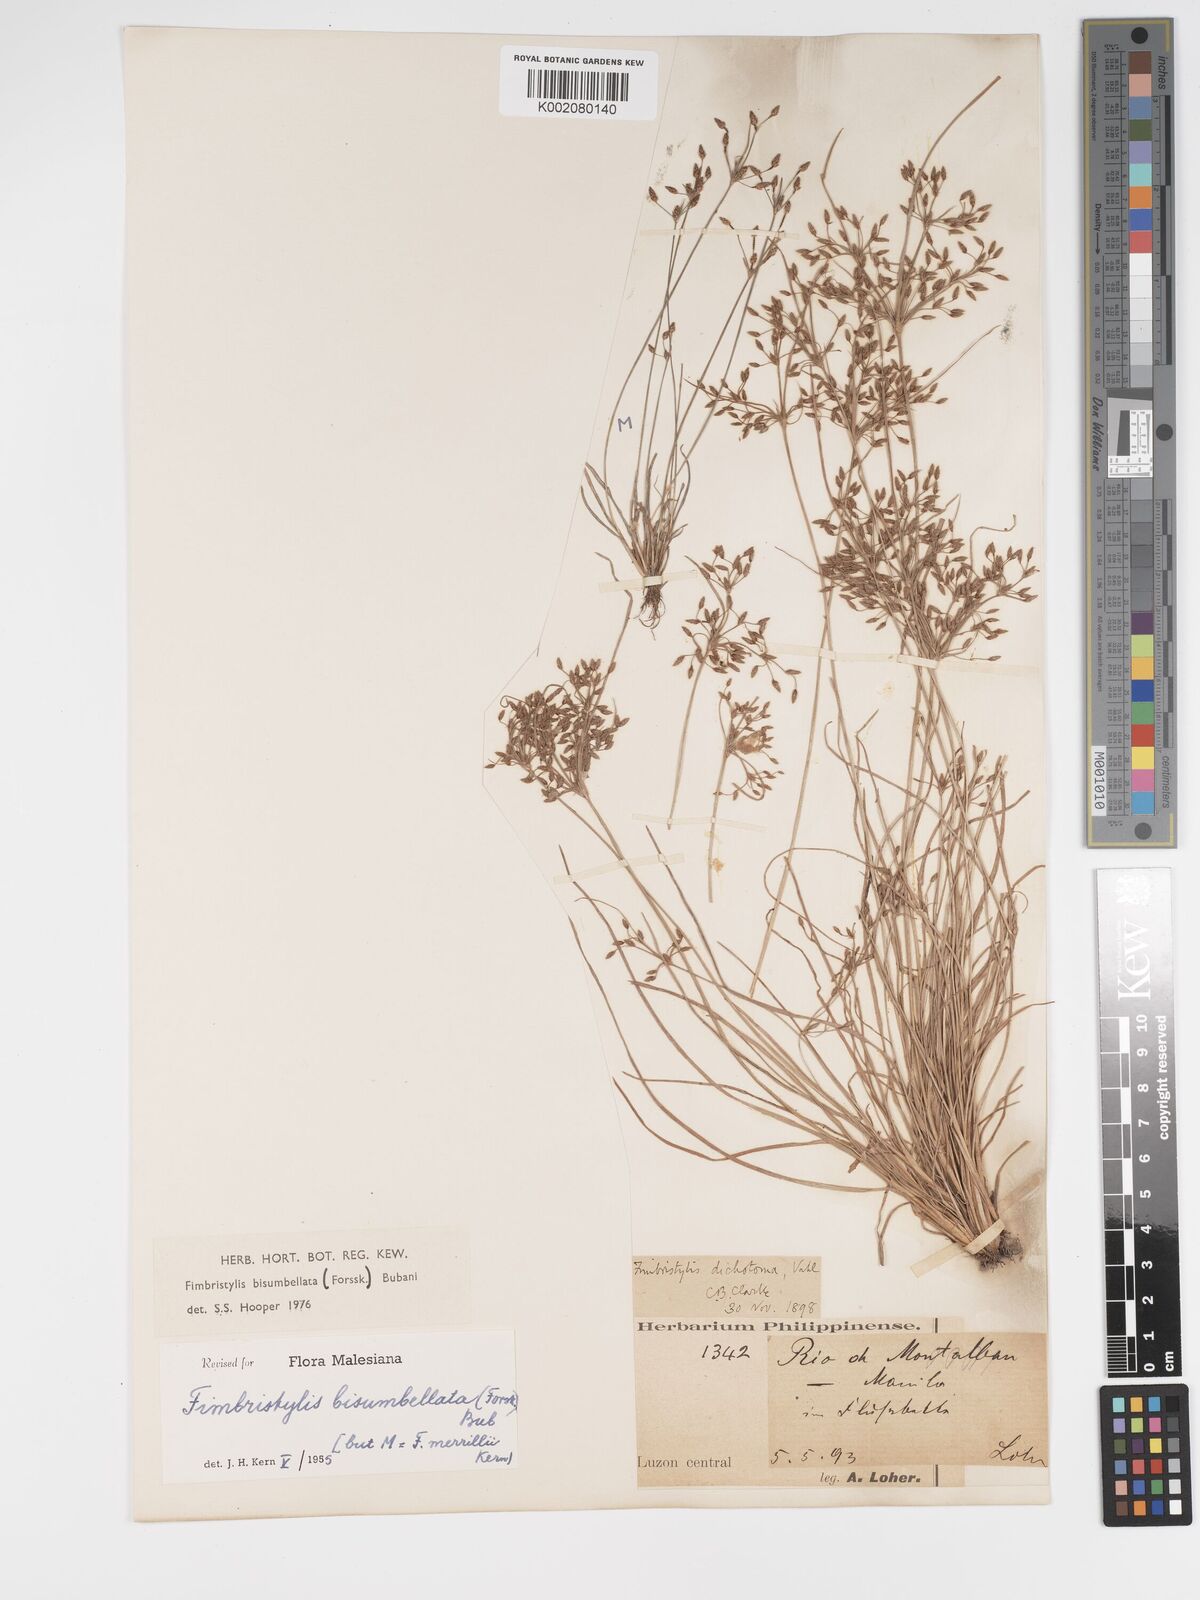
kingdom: Plantae
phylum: Tracheophyta
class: Liliopsida
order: Poales
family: Cyperaceae
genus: Fimbristylis
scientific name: Fimbristylis bisumbellata
